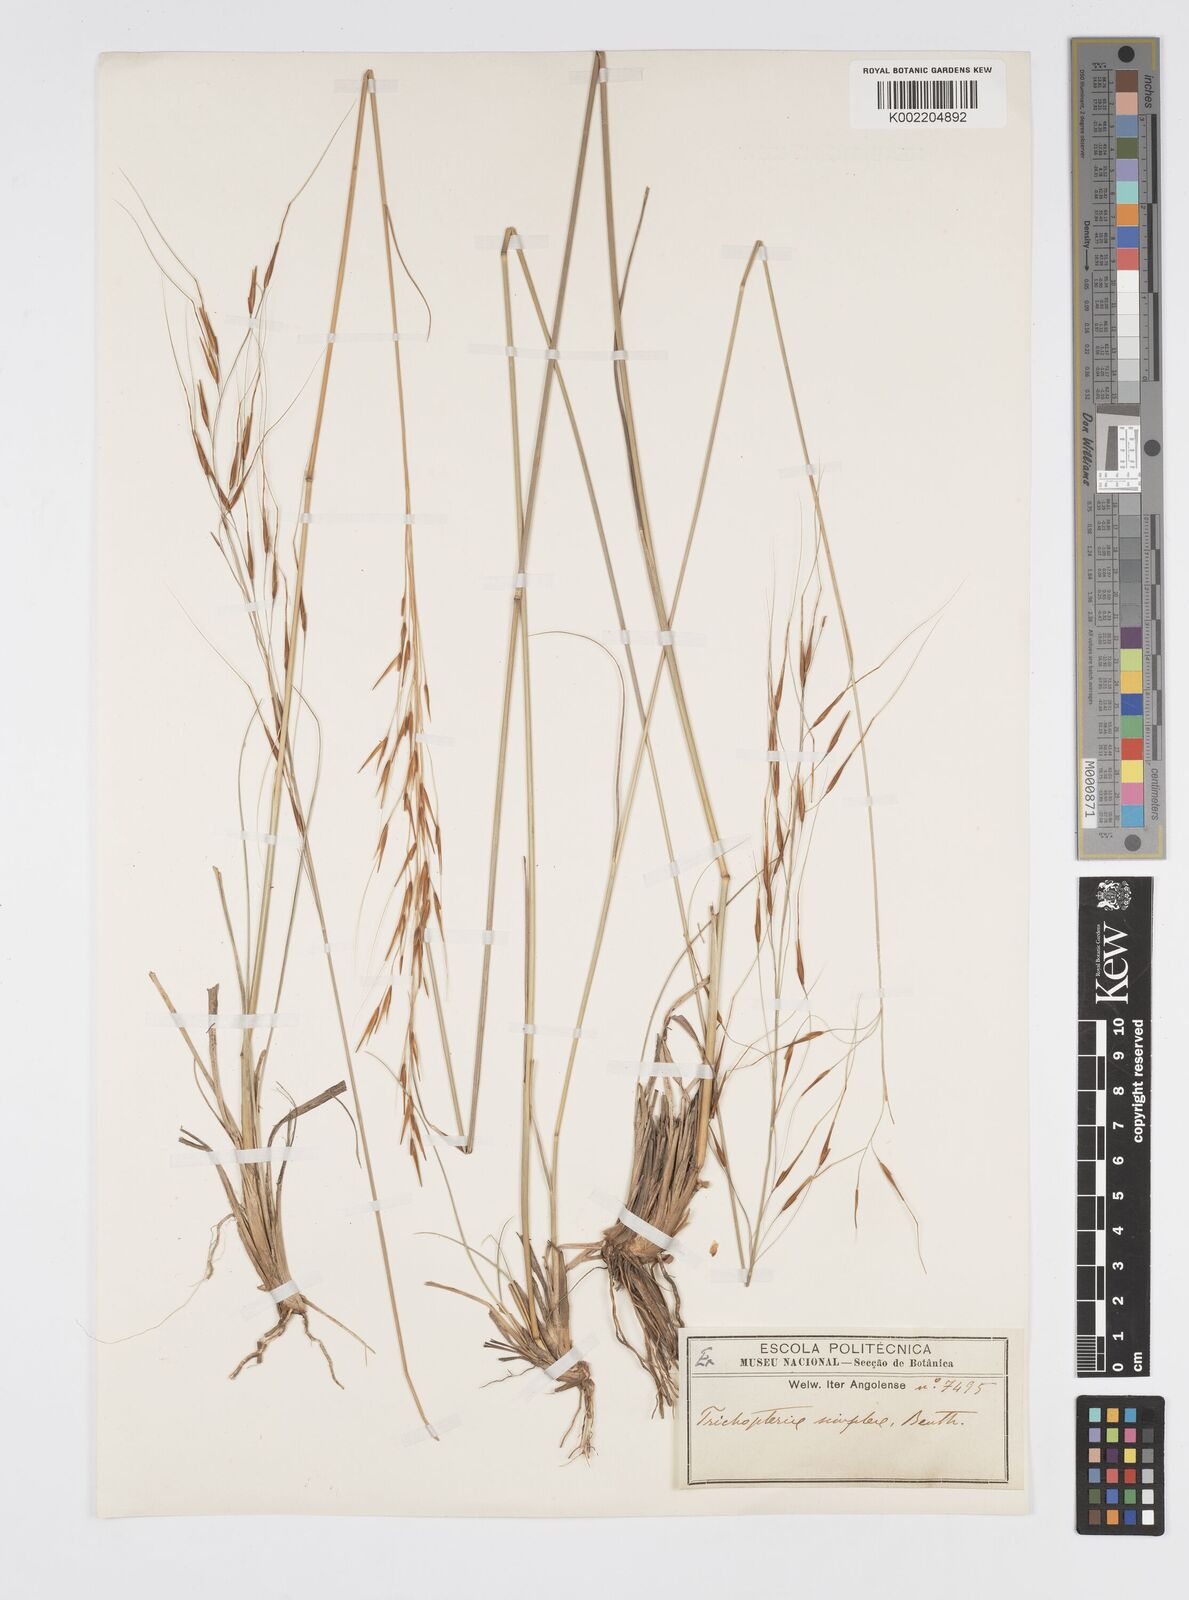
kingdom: Plantae
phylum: Tracheophyta
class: Liliopsida
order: Poales
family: Poaceae
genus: Loudetia
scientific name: Loudetia simplex
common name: Common russet grass
